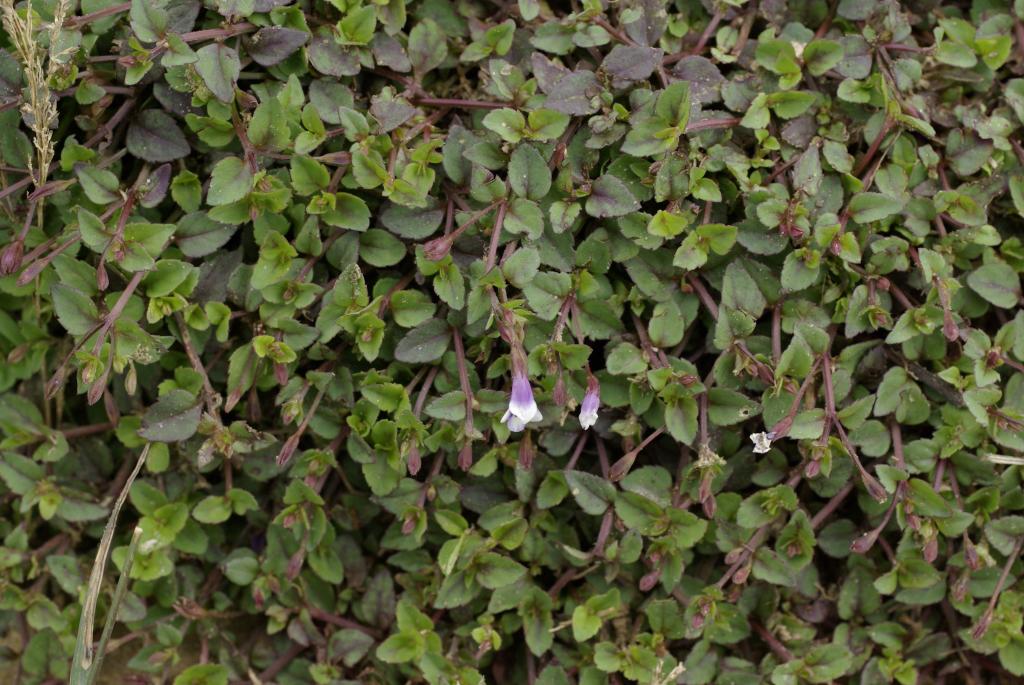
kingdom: Plantae
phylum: Tracheophyta
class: Magnoliopsida
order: Lamiales
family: Linderniaceae
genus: Torenia
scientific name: Torenia crustacea
